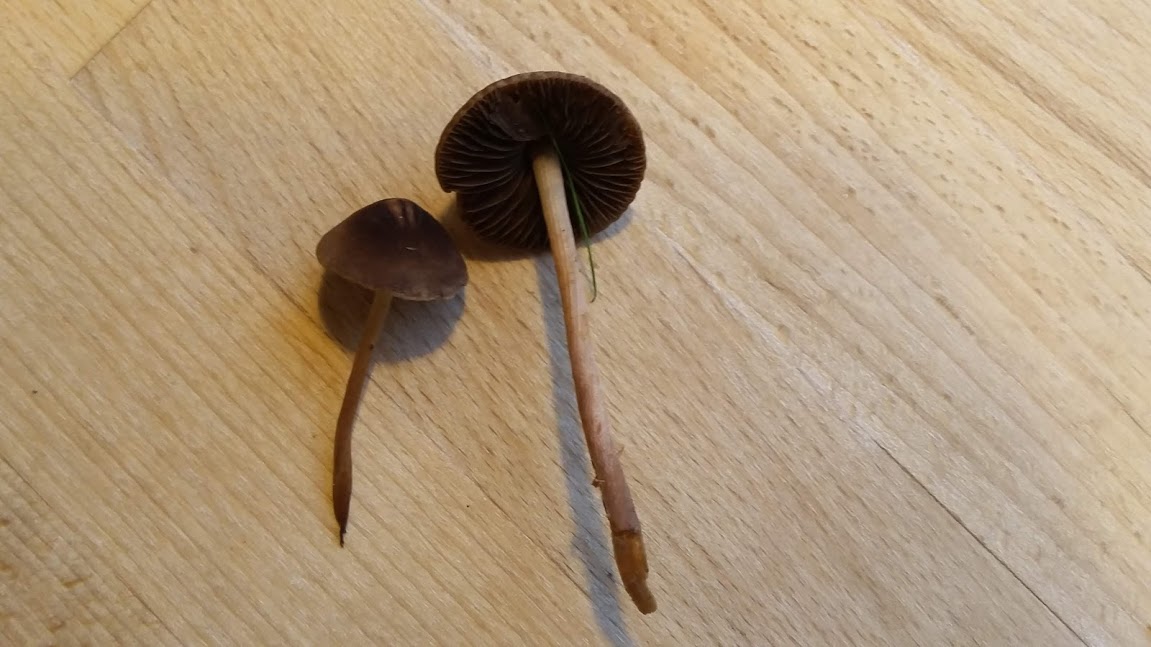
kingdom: Fungi
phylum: Basidiomycota
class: Agaricomycetes
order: Agaricales
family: Bolbitiaceae
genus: Panaeolus
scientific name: Panaeolus acuminatus
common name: høj glanshat
